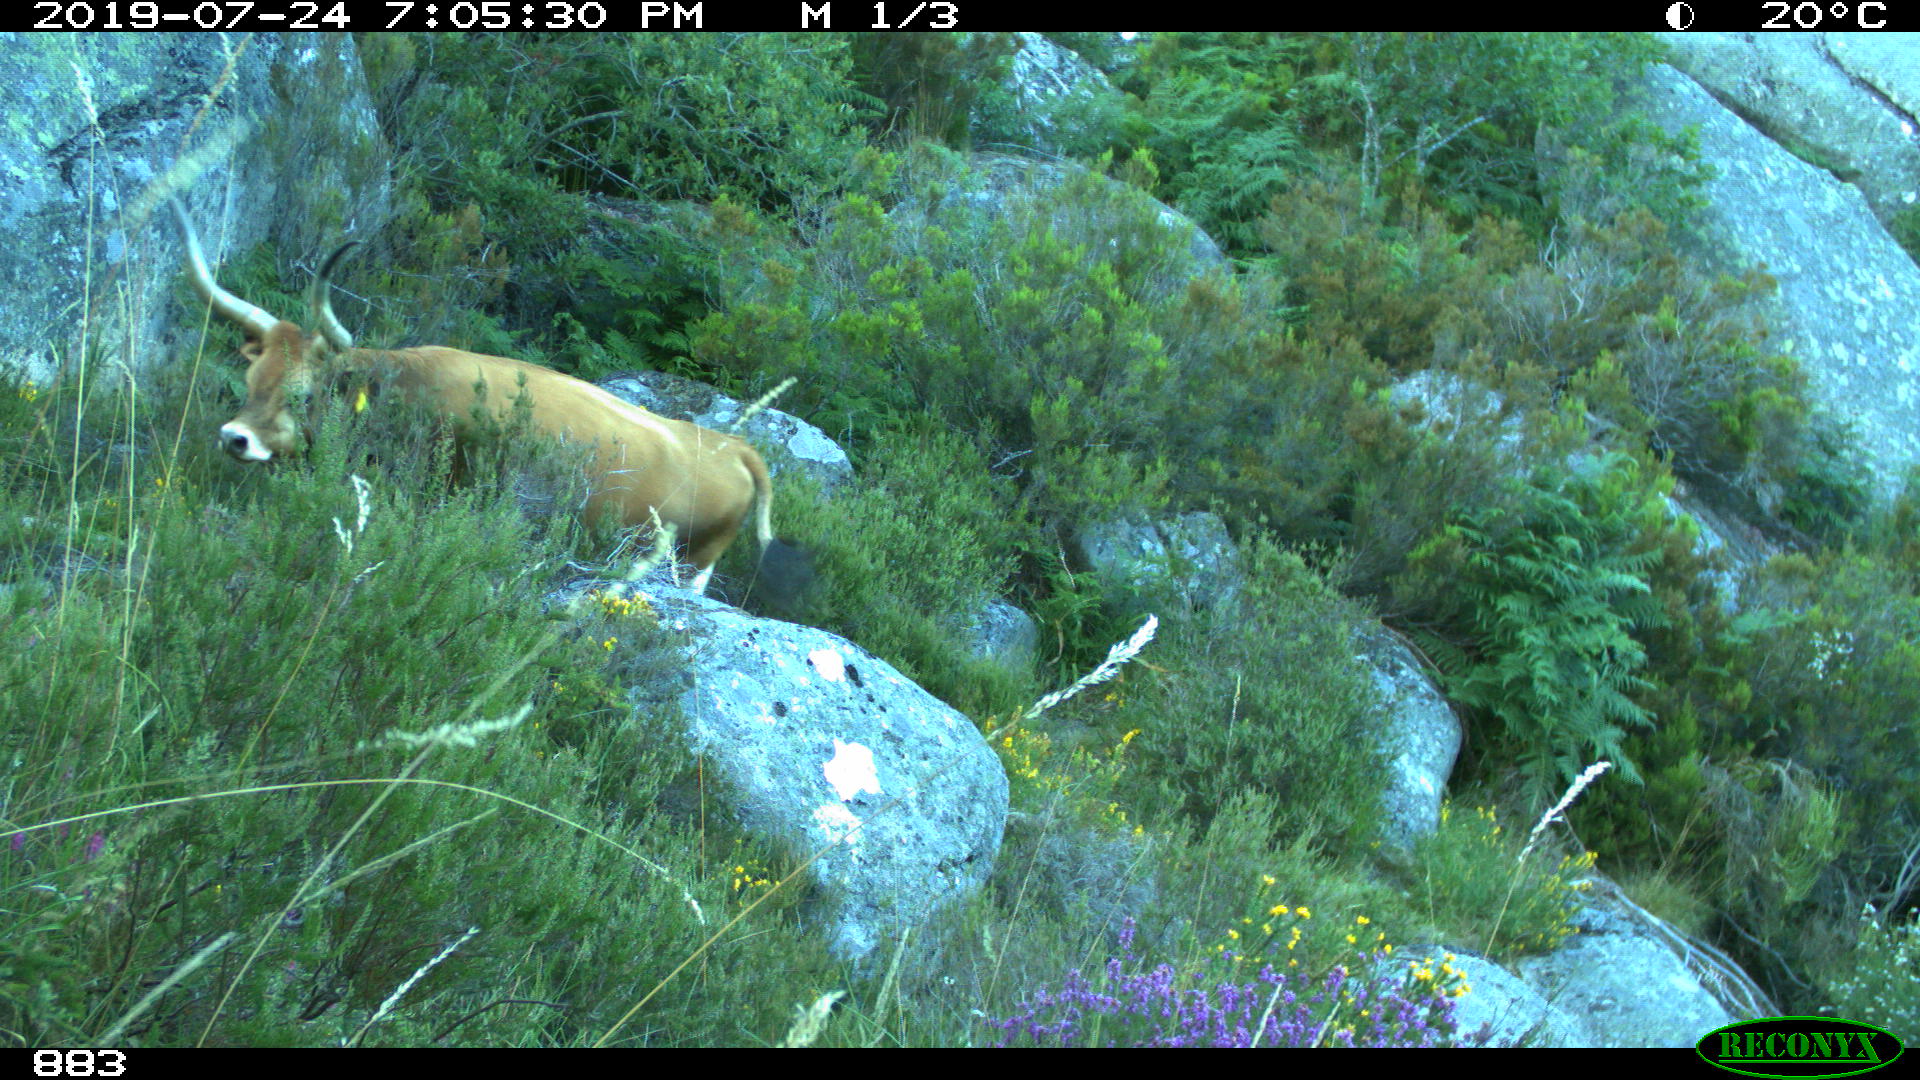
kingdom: Animalia
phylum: Chordata
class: Mammalia
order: Artiodactyla
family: Bovidae
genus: Bos
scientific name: Bos taurus
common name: Domesticated cattle
